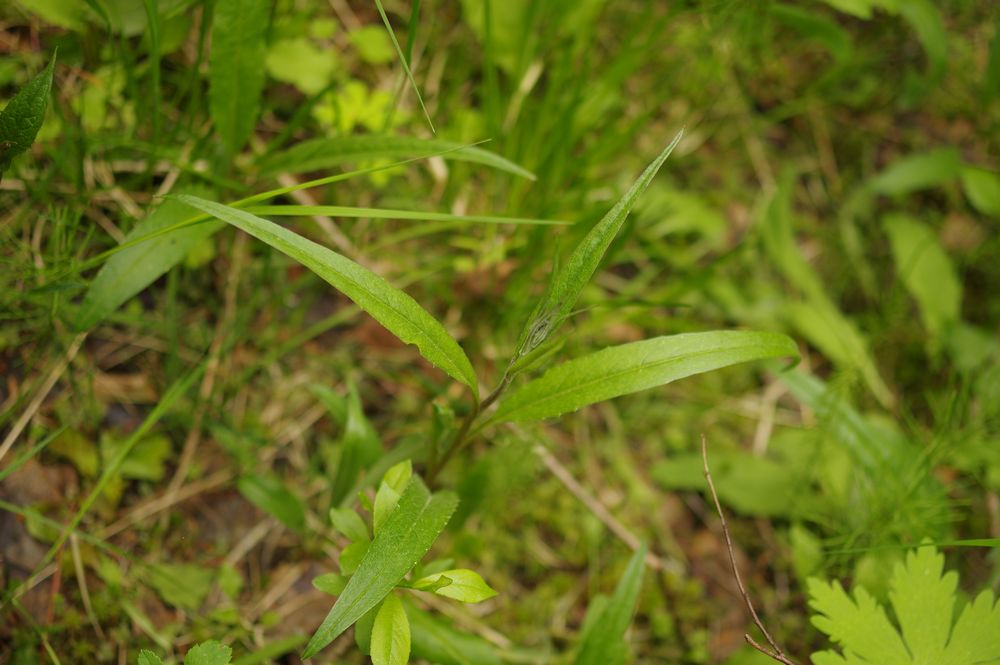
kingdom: Plantae
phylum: Tracheophyta
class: Magnoliopsida
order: Asterales
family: Asteraceae
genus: Saussurea
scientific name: Saussurea alpina
